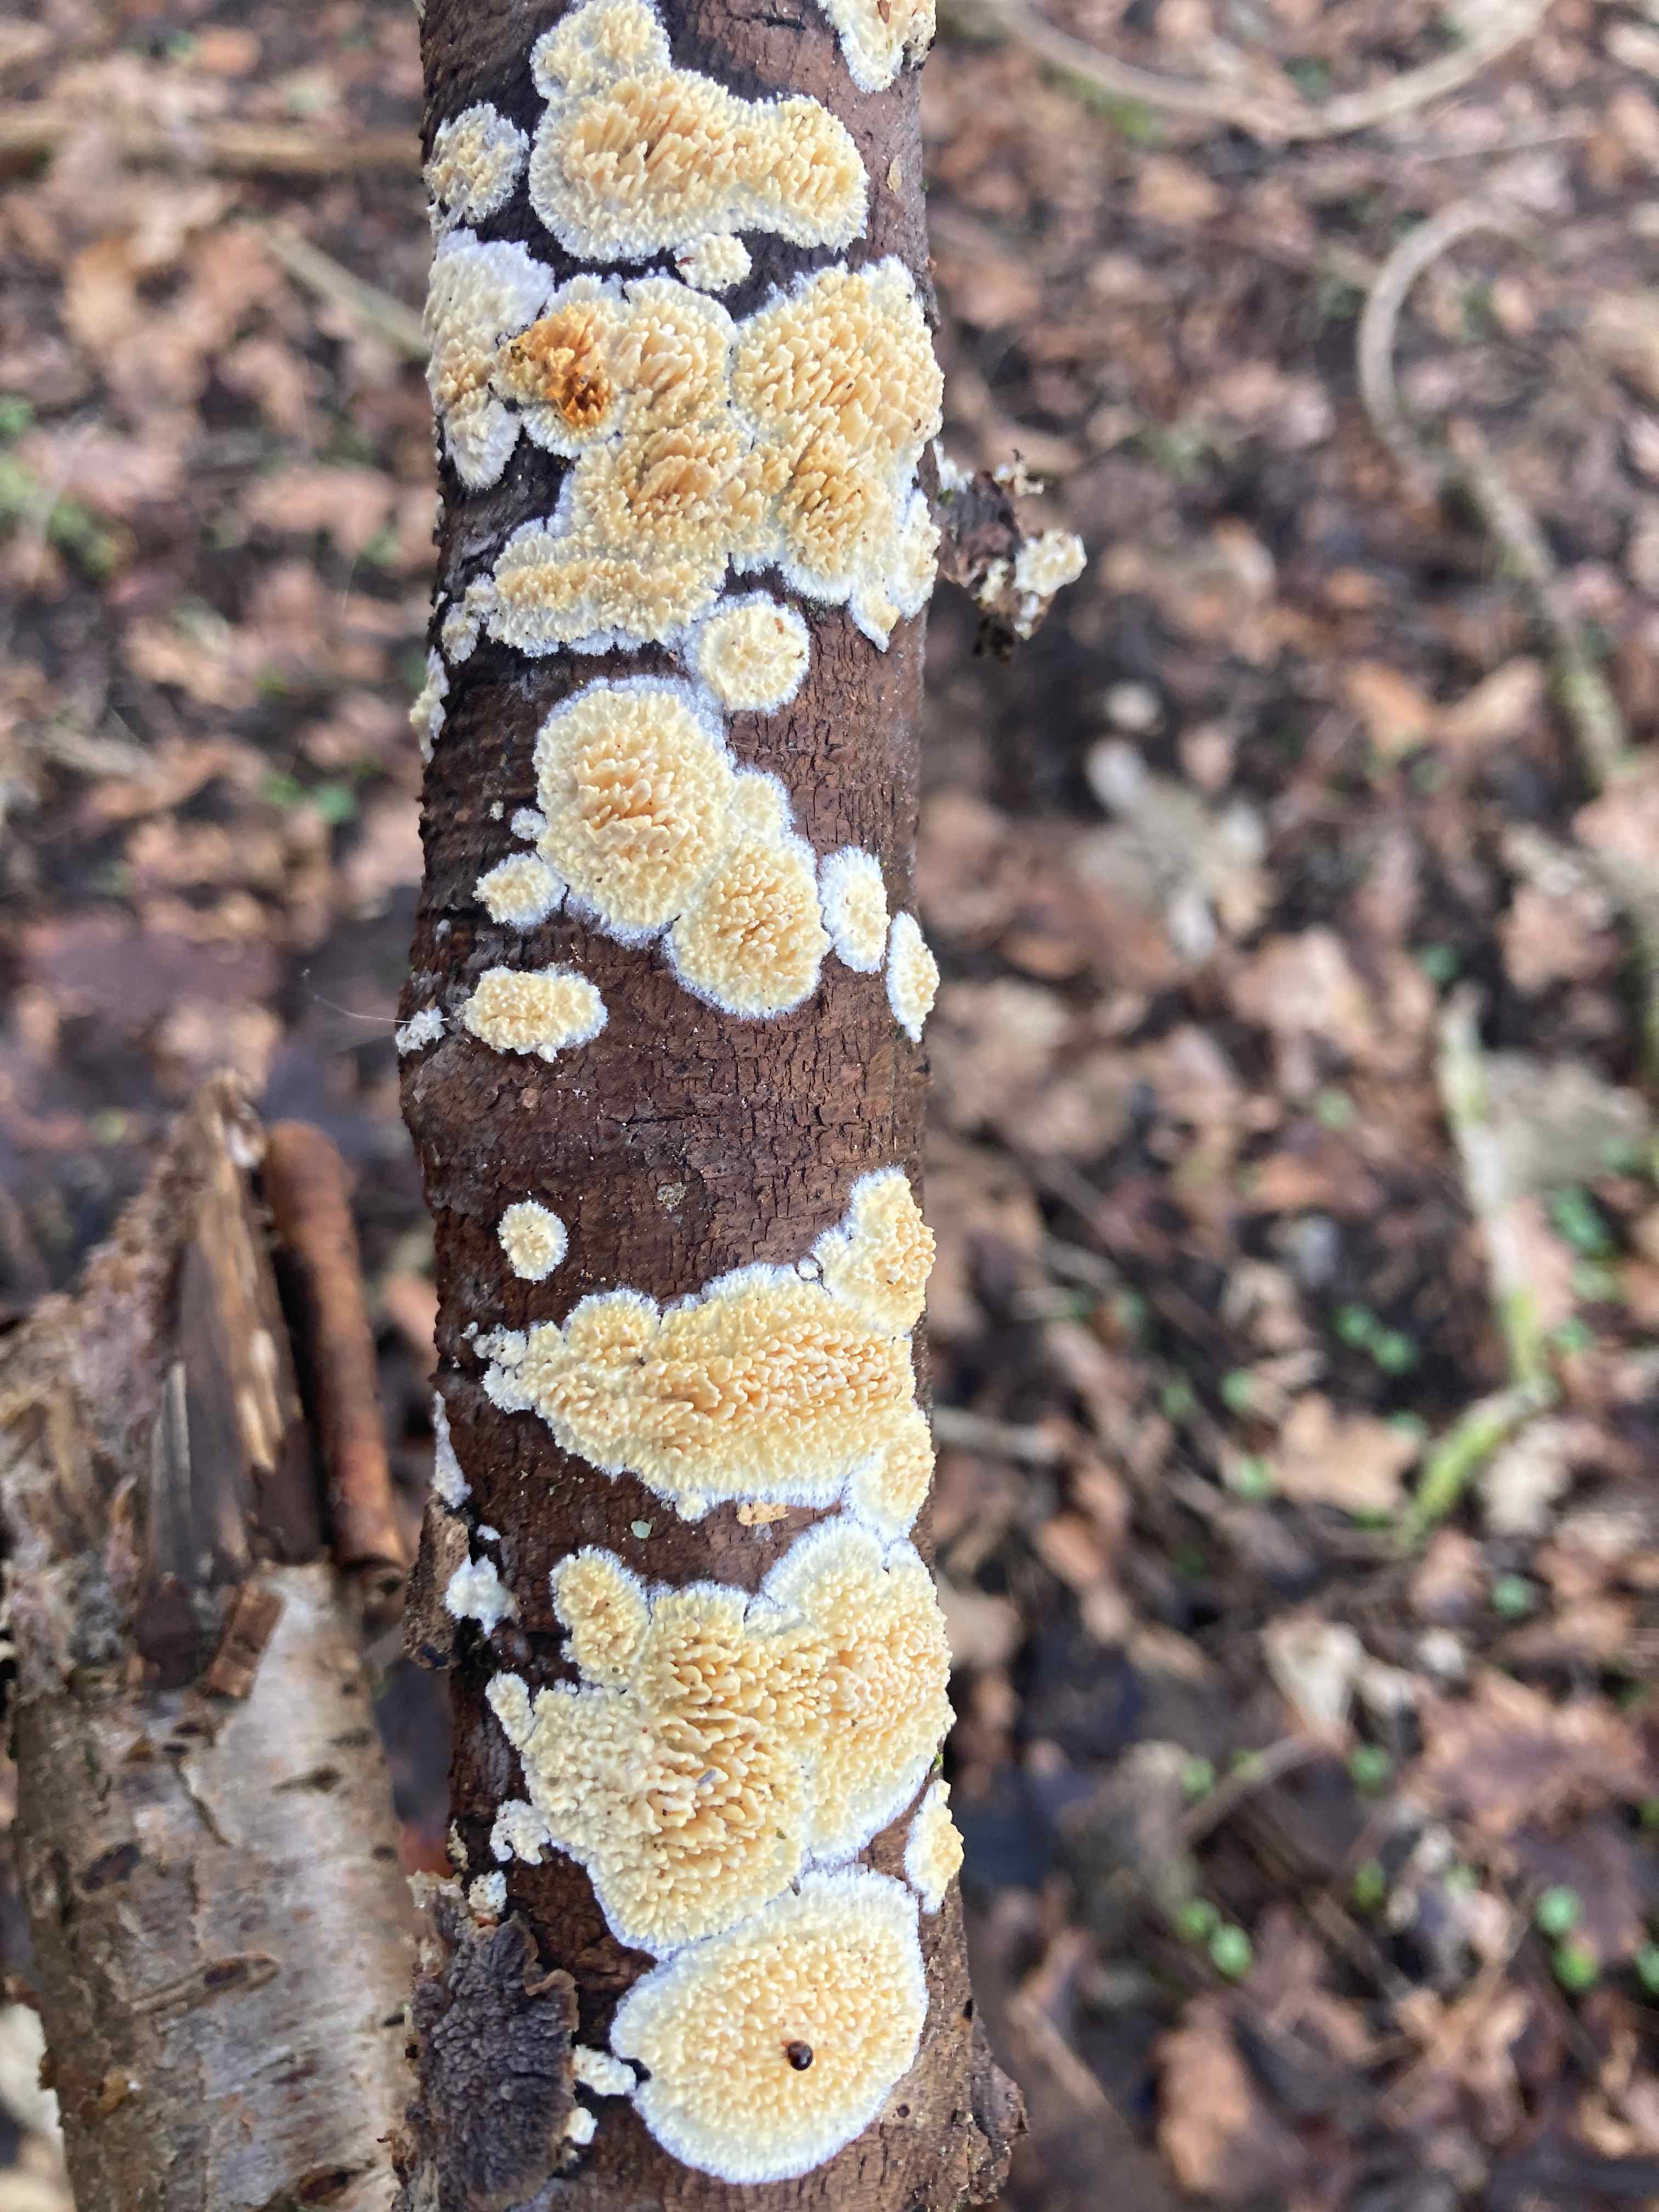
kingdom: Fungi
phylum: Basidiomycota
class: Agaricomycetes
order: Hymenochaetales
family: Schizoporaceae
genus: Xylodon
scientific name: Xylodon radula
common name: grovtandet kalkskind
